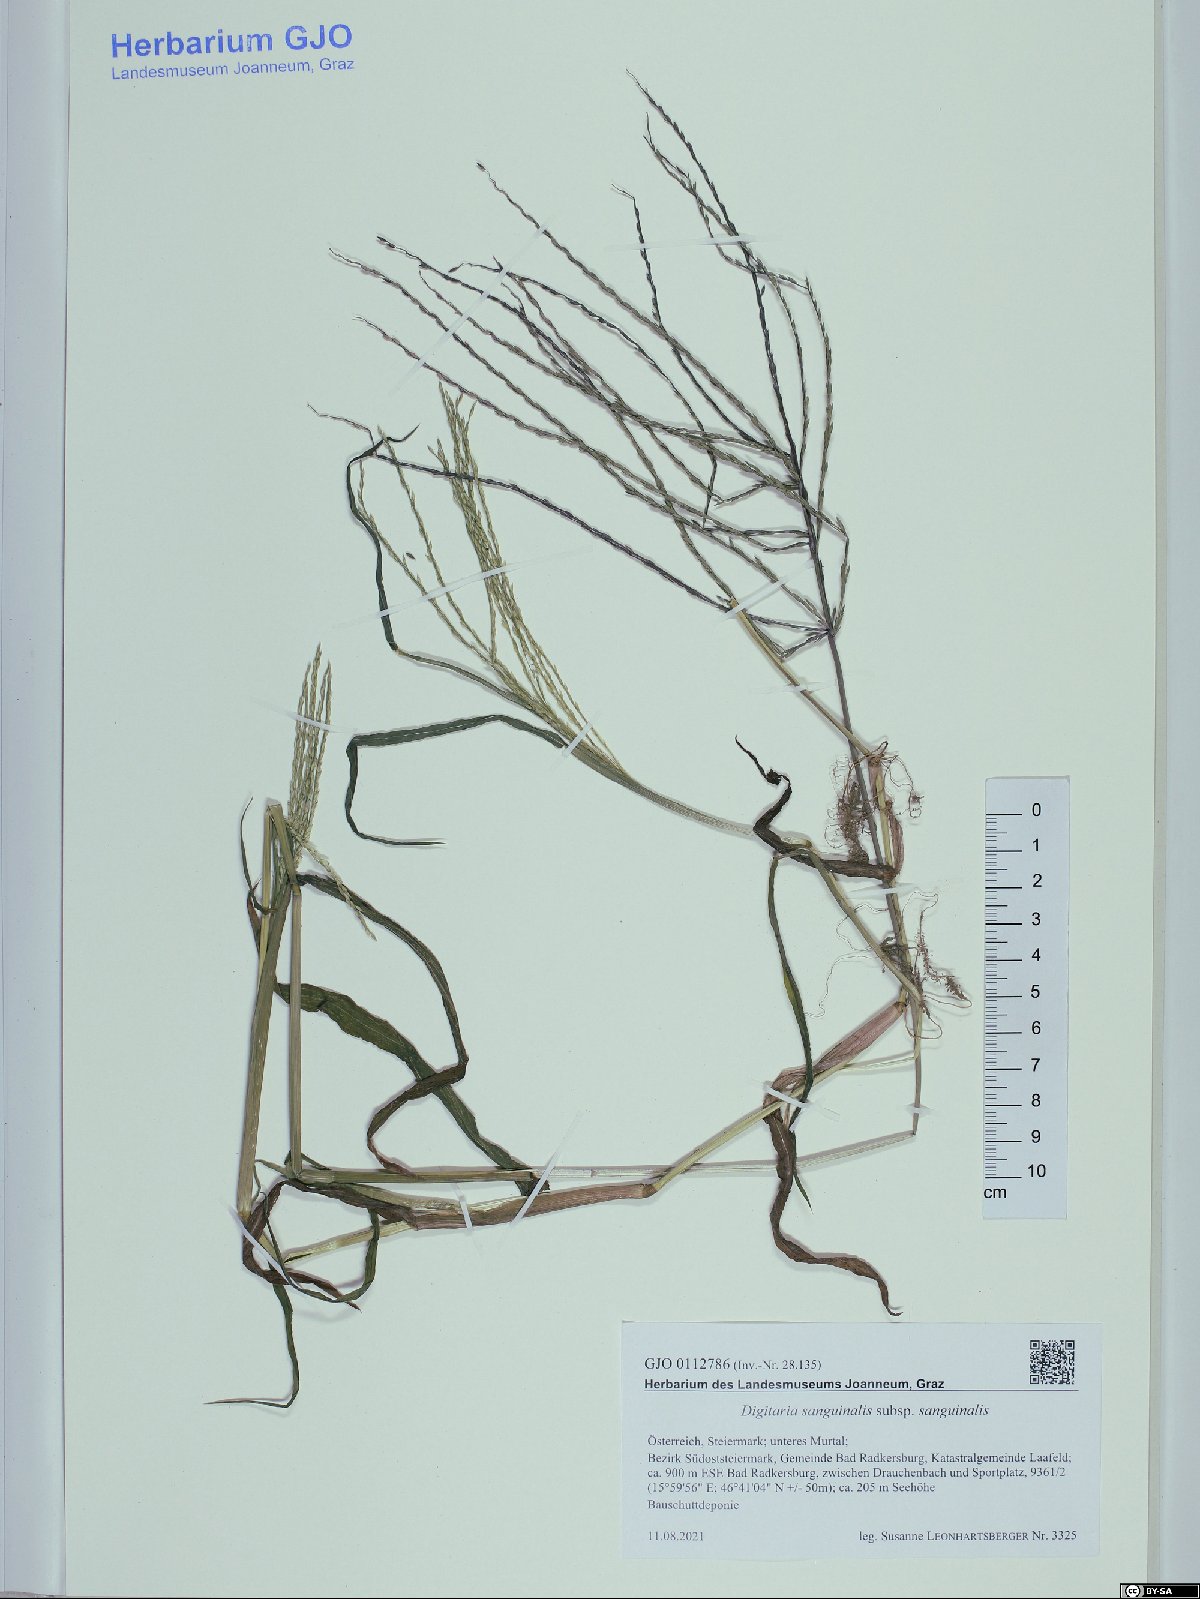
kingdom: Plantae
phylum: Tracheophyta
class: Liliopsida
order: Poales
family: Poaceae
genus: Digitaria
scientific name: Digitaria sanguinalis
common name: Hairy crabgrass
